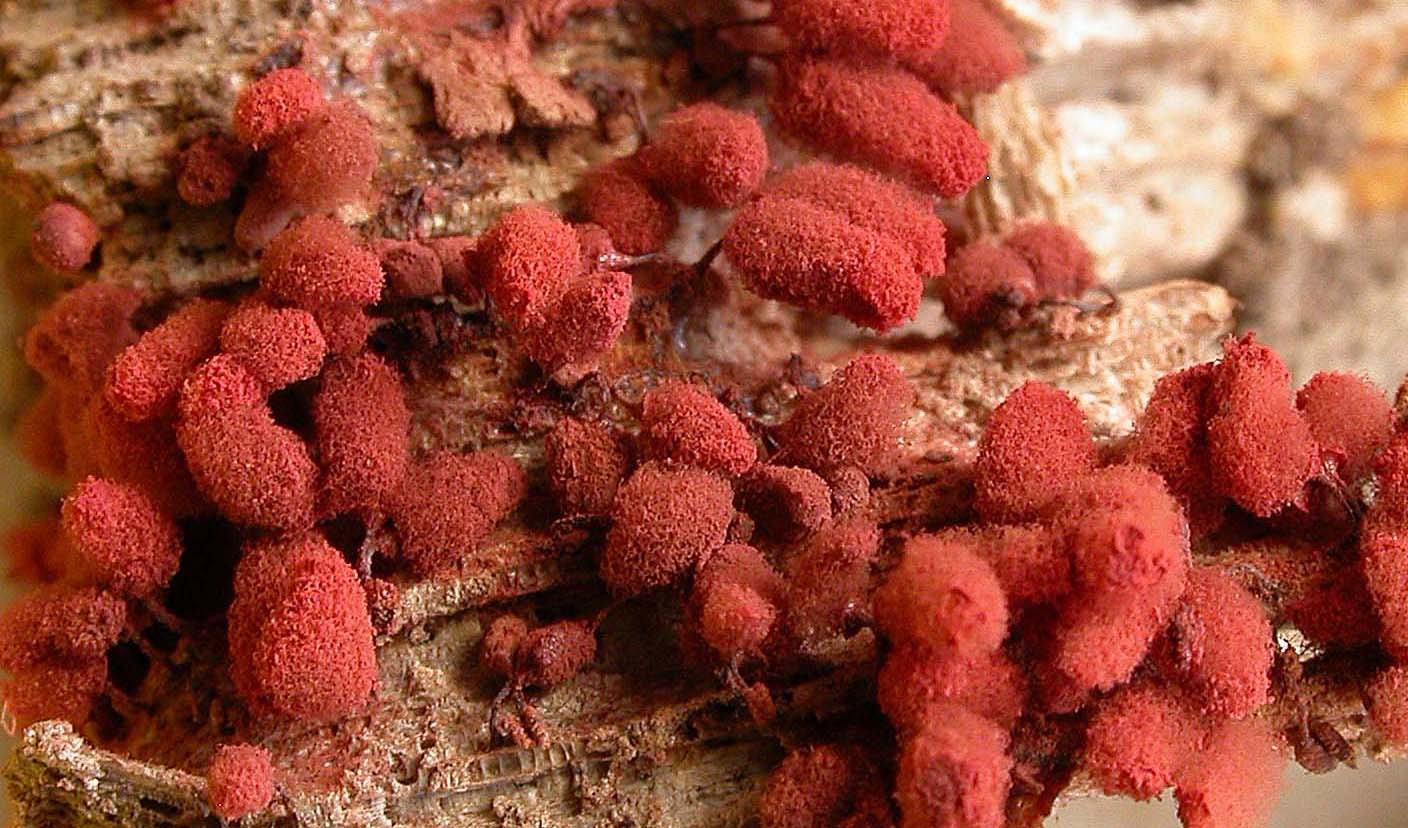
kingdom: Protozoa
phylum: Mycetozoa
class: Myxomycetes
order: Trichiales
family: Arcyriaceae
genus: Arcyria
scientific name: Arcyria denudata
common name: karminrød skålsvøb
